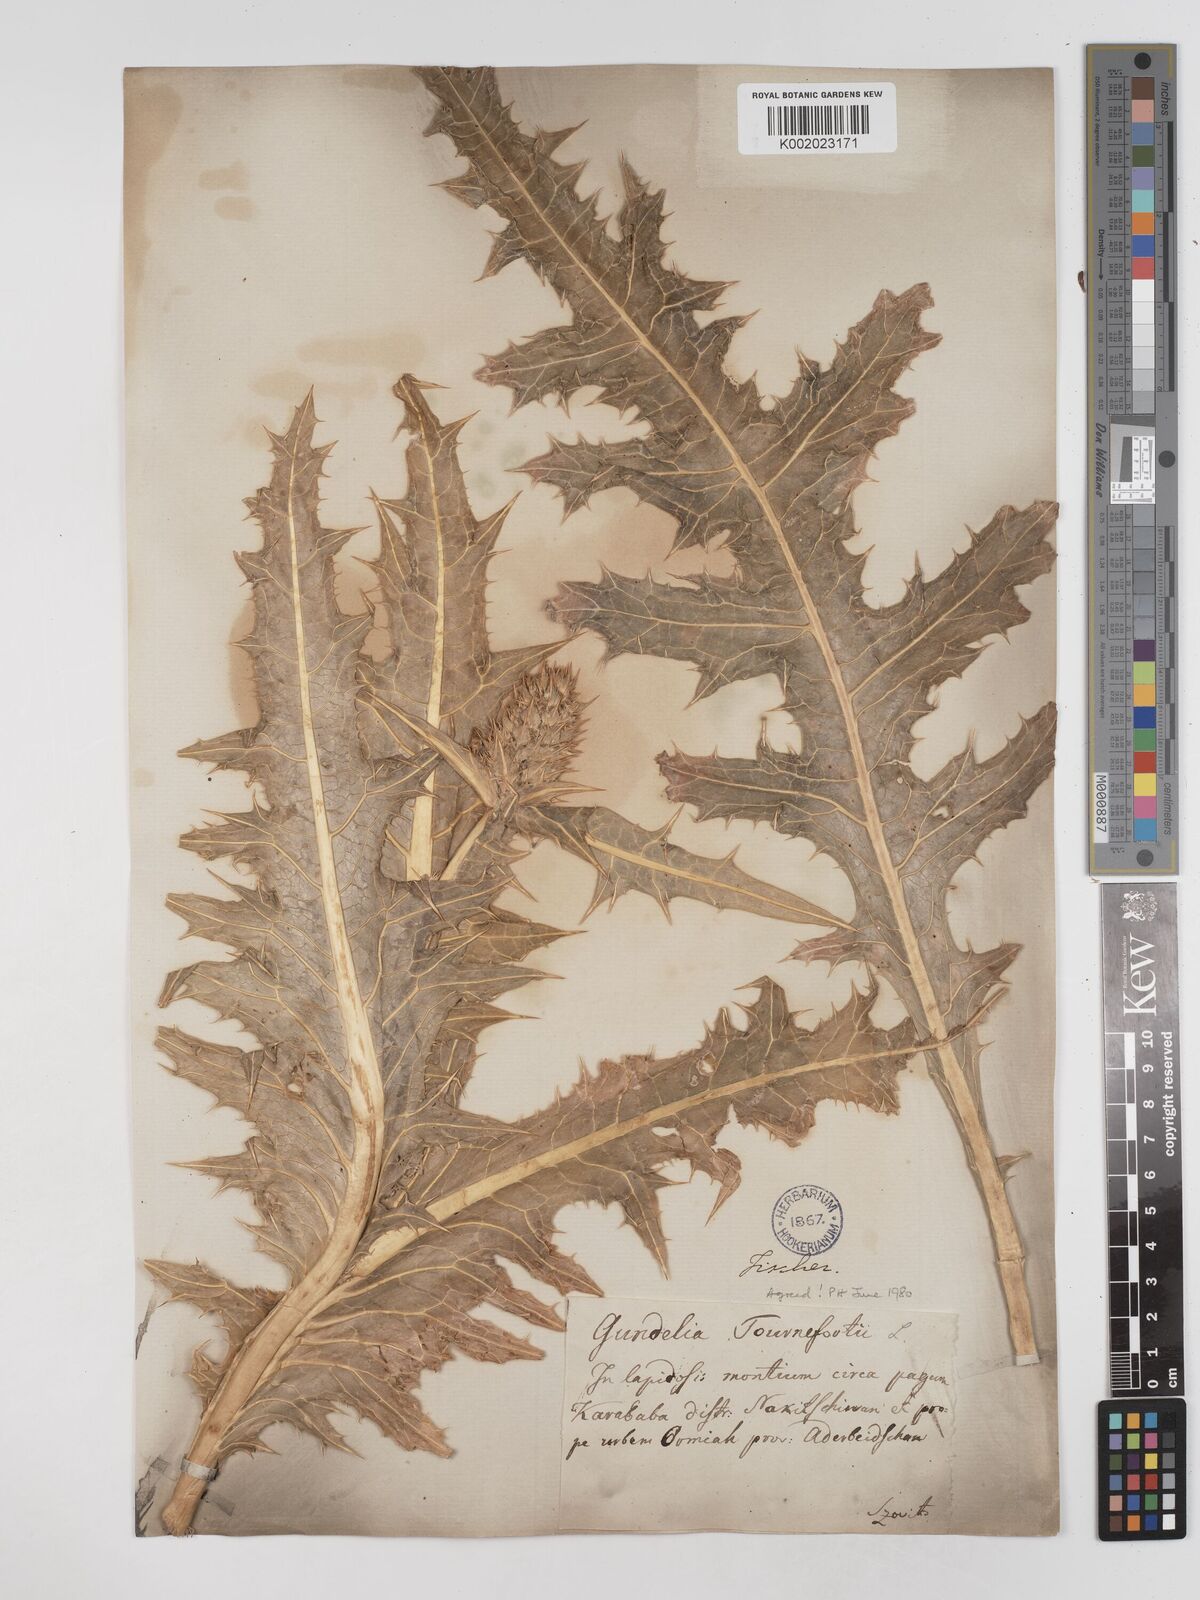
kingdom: Plantae
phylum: Tracheophyta
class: Magnoliopsida
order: Asterales
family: Asteraceae
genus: Gundelia
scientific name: Gundelia tournefortii
